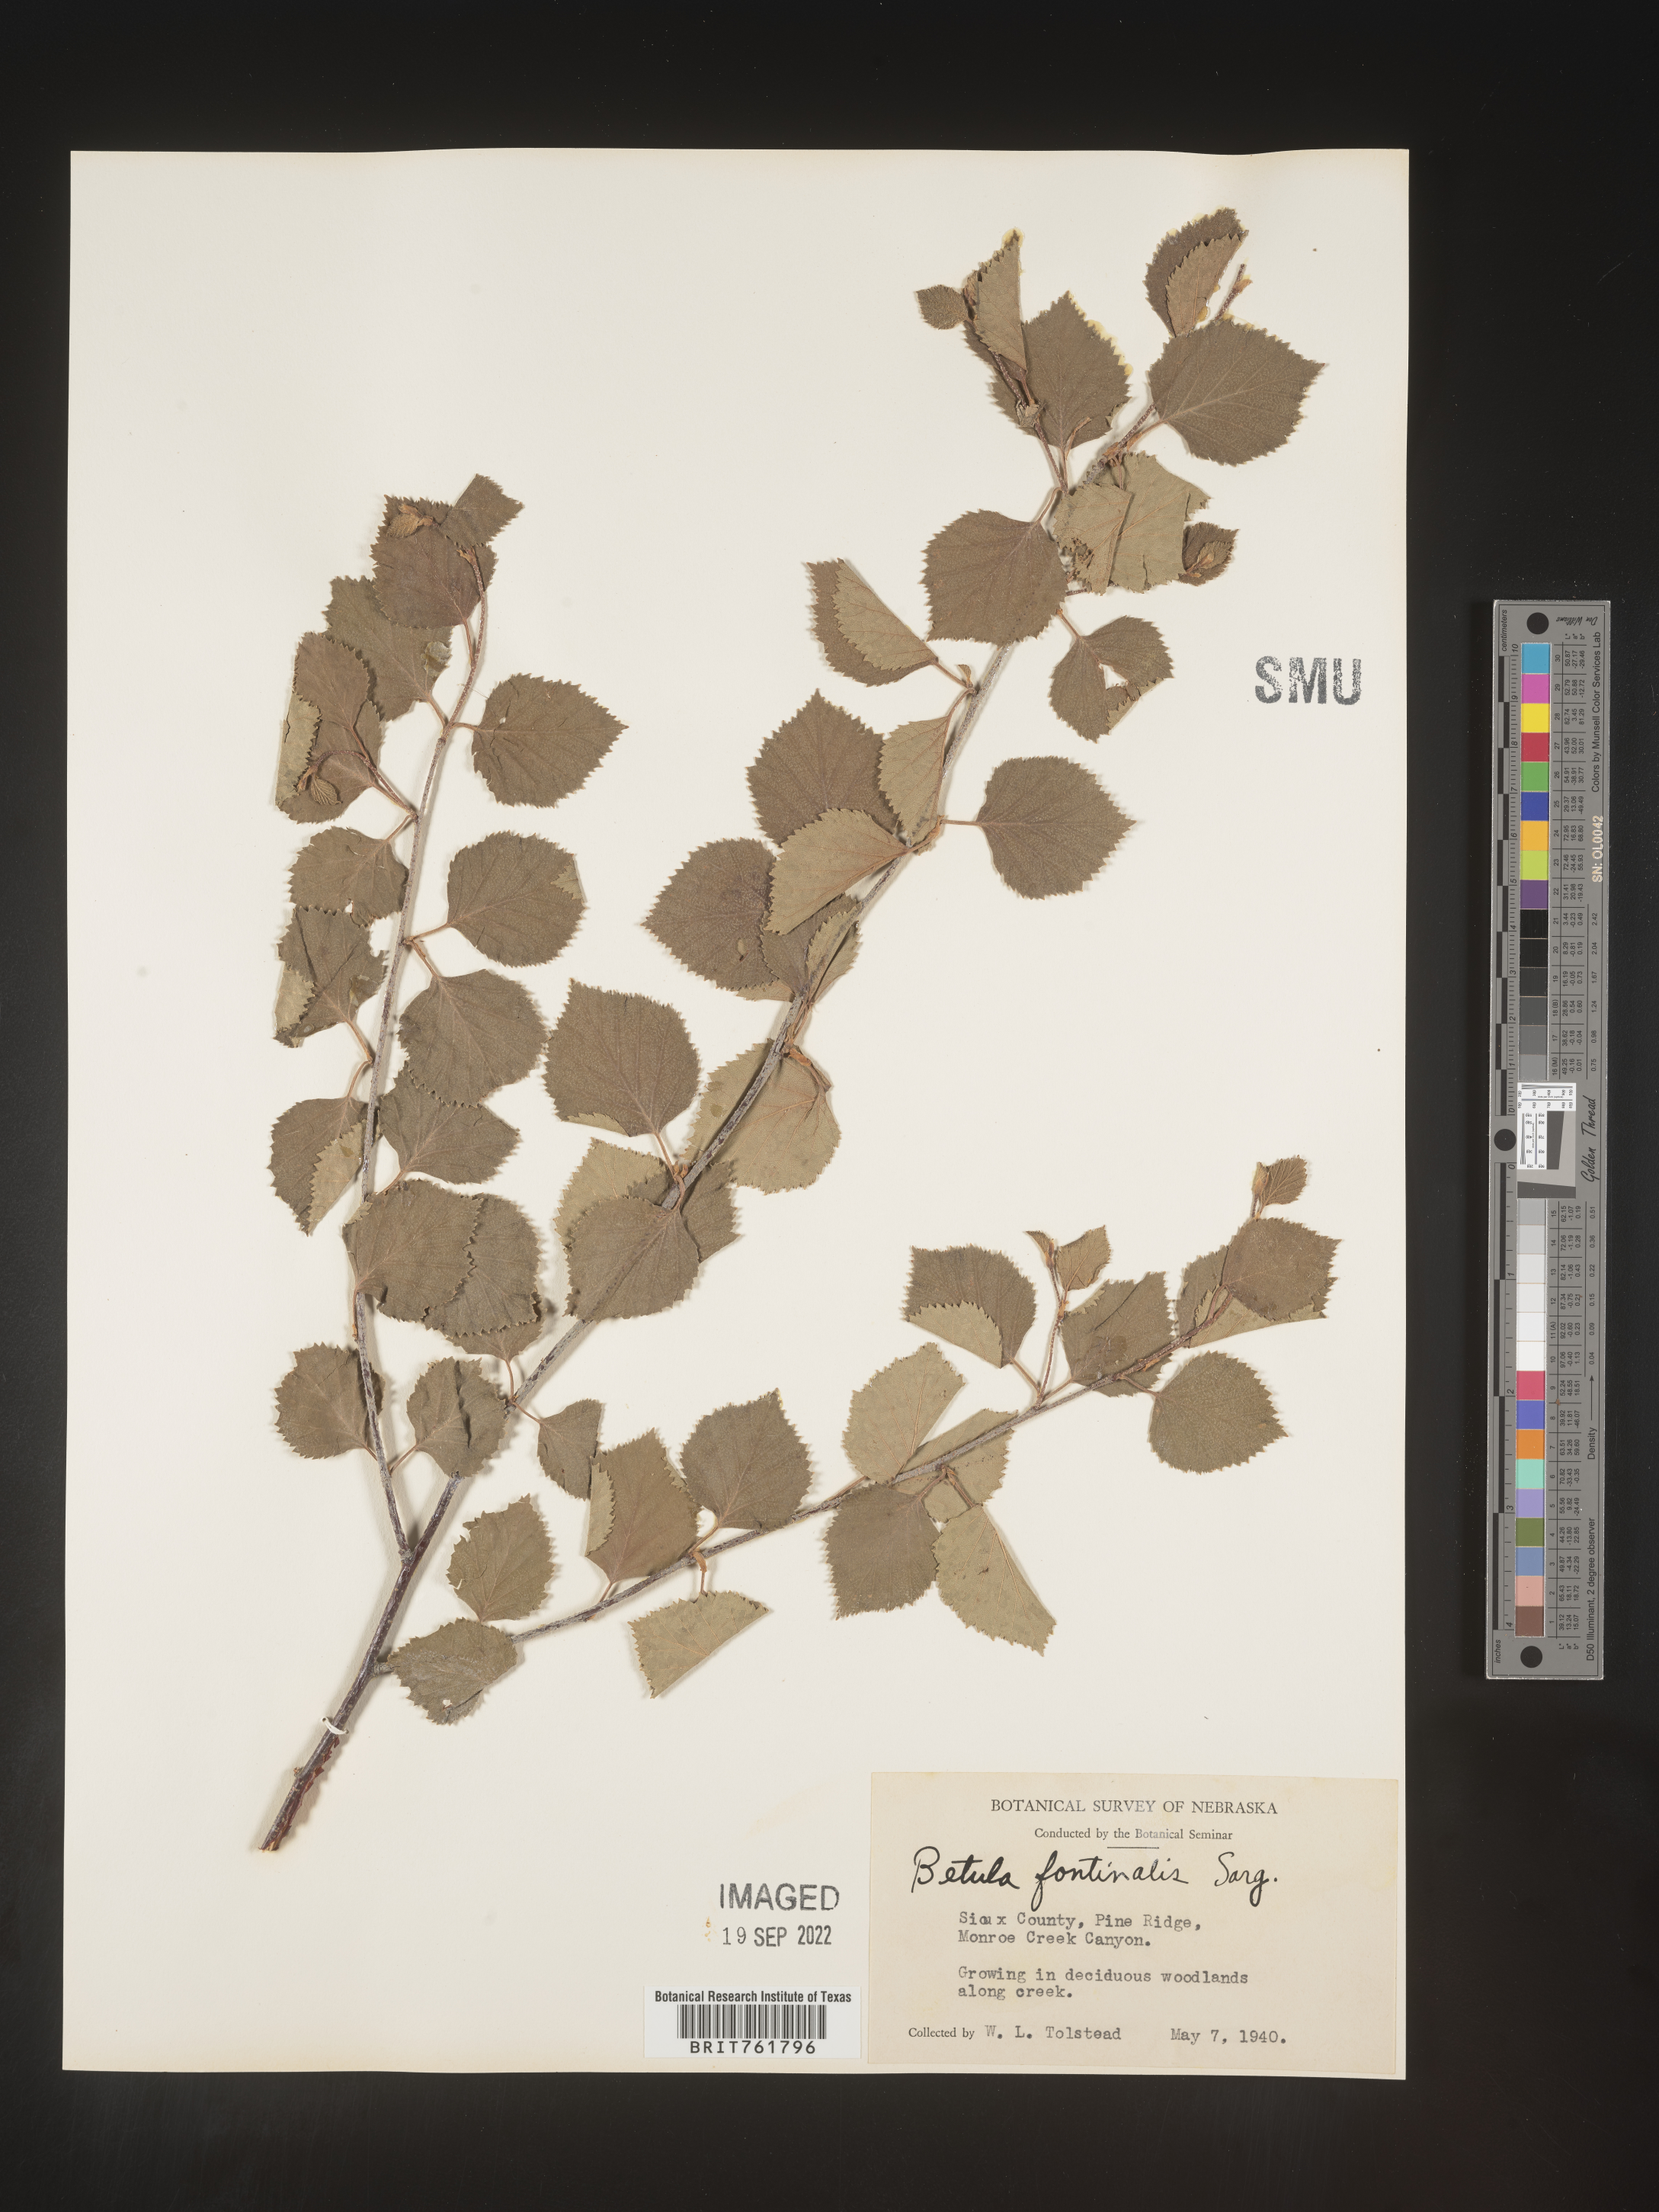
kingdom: Plantae
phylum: Tracheophyta
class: Magnoliopsida
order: Fagales
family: Betulaceae
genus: Betula
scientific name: Betula occidentalis
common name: River birch
